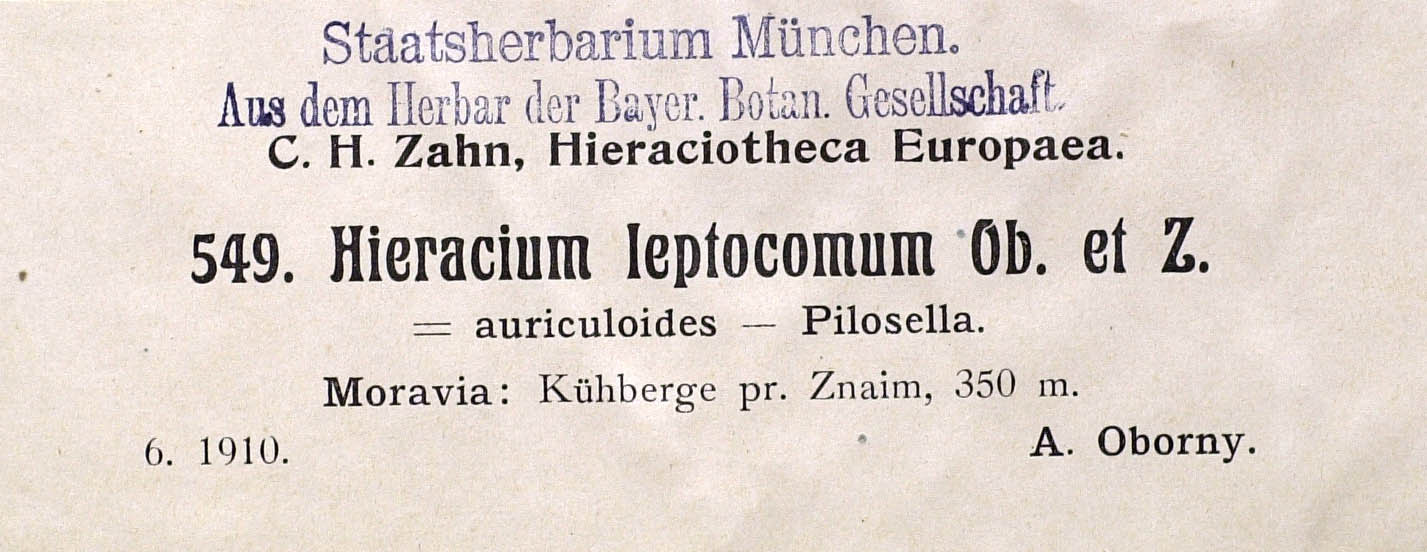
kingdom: Plantae
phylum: Tracheophyta
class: Magnoliopsida
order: Asterales
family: Asteraceae
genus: Pilosella
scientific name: Pilosella acutifolia
